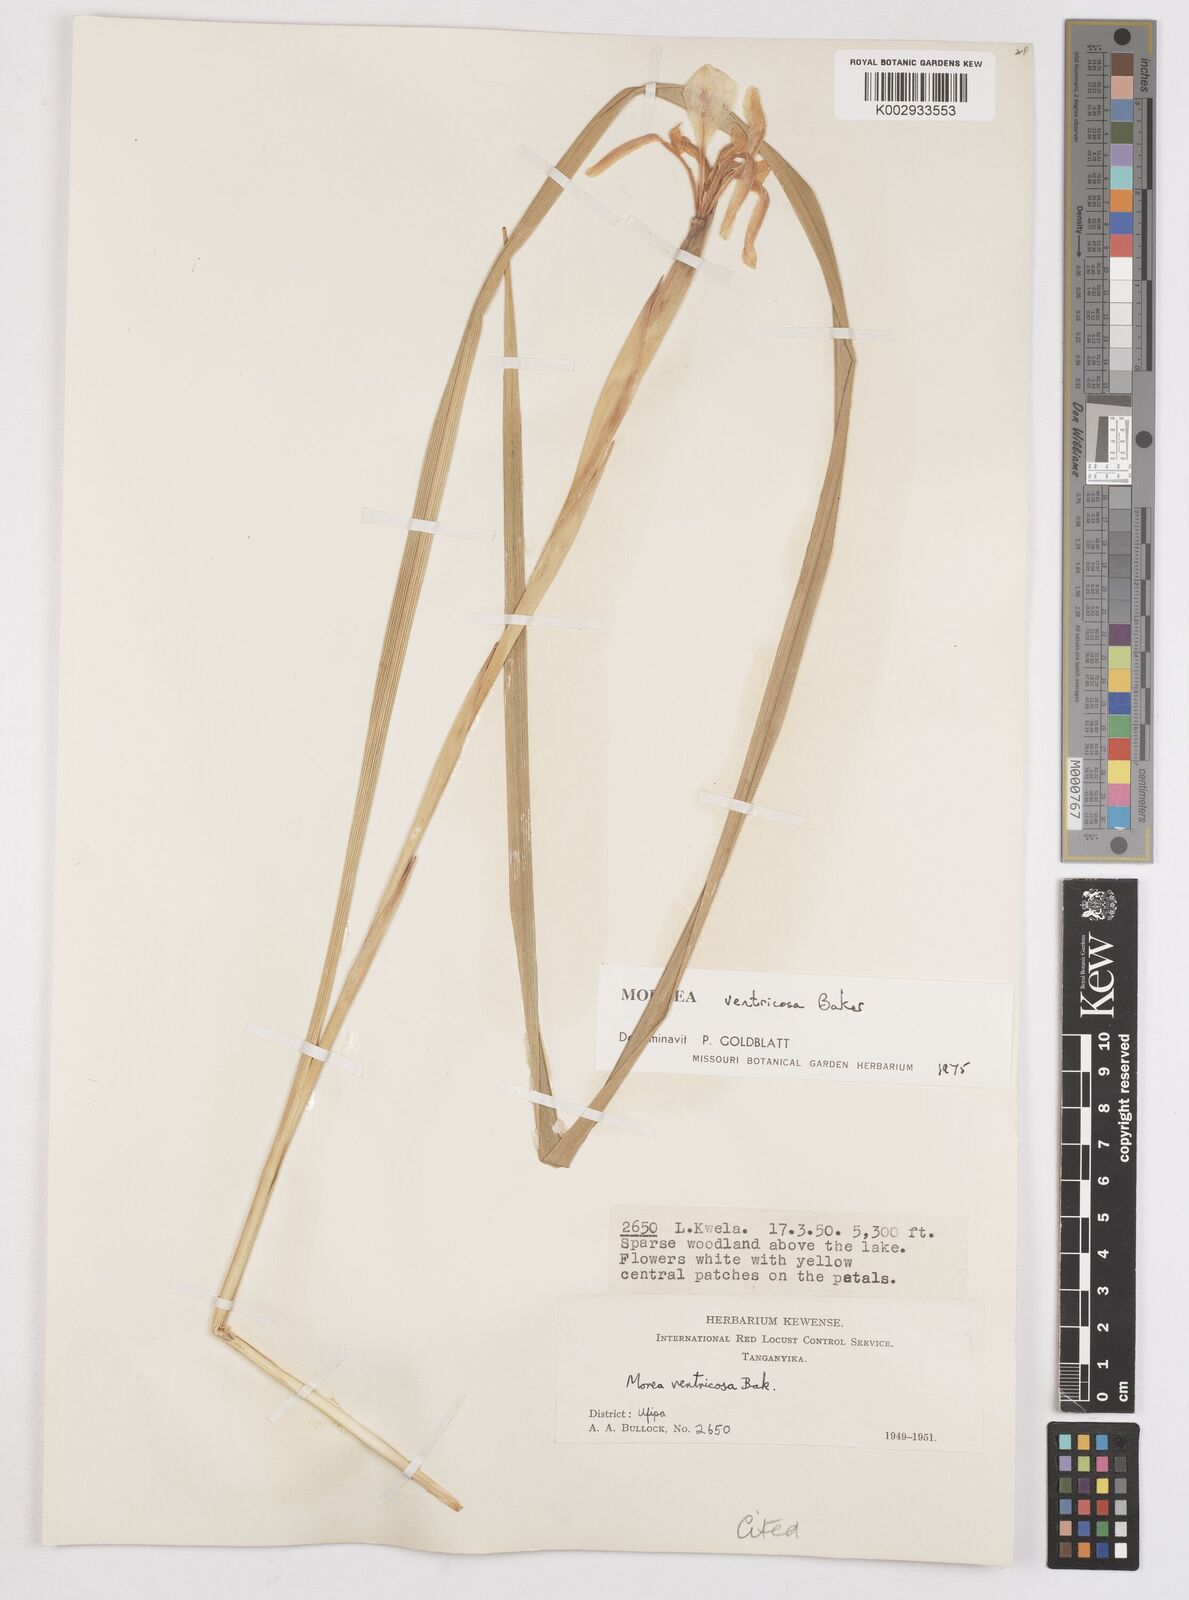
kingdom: Plantae
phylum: Tracheophyta
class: Liliopsida
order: Asparagales
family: Iridaceae
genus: Moraea
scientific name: Moraea ventricosa
